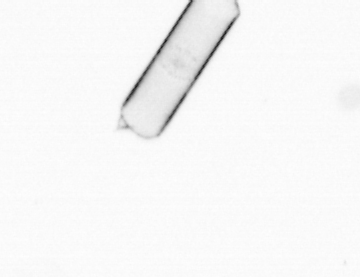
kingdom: Chromista
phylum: Ochrophyta
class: Bacillariophyceae
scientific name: Bacillariophyceae
